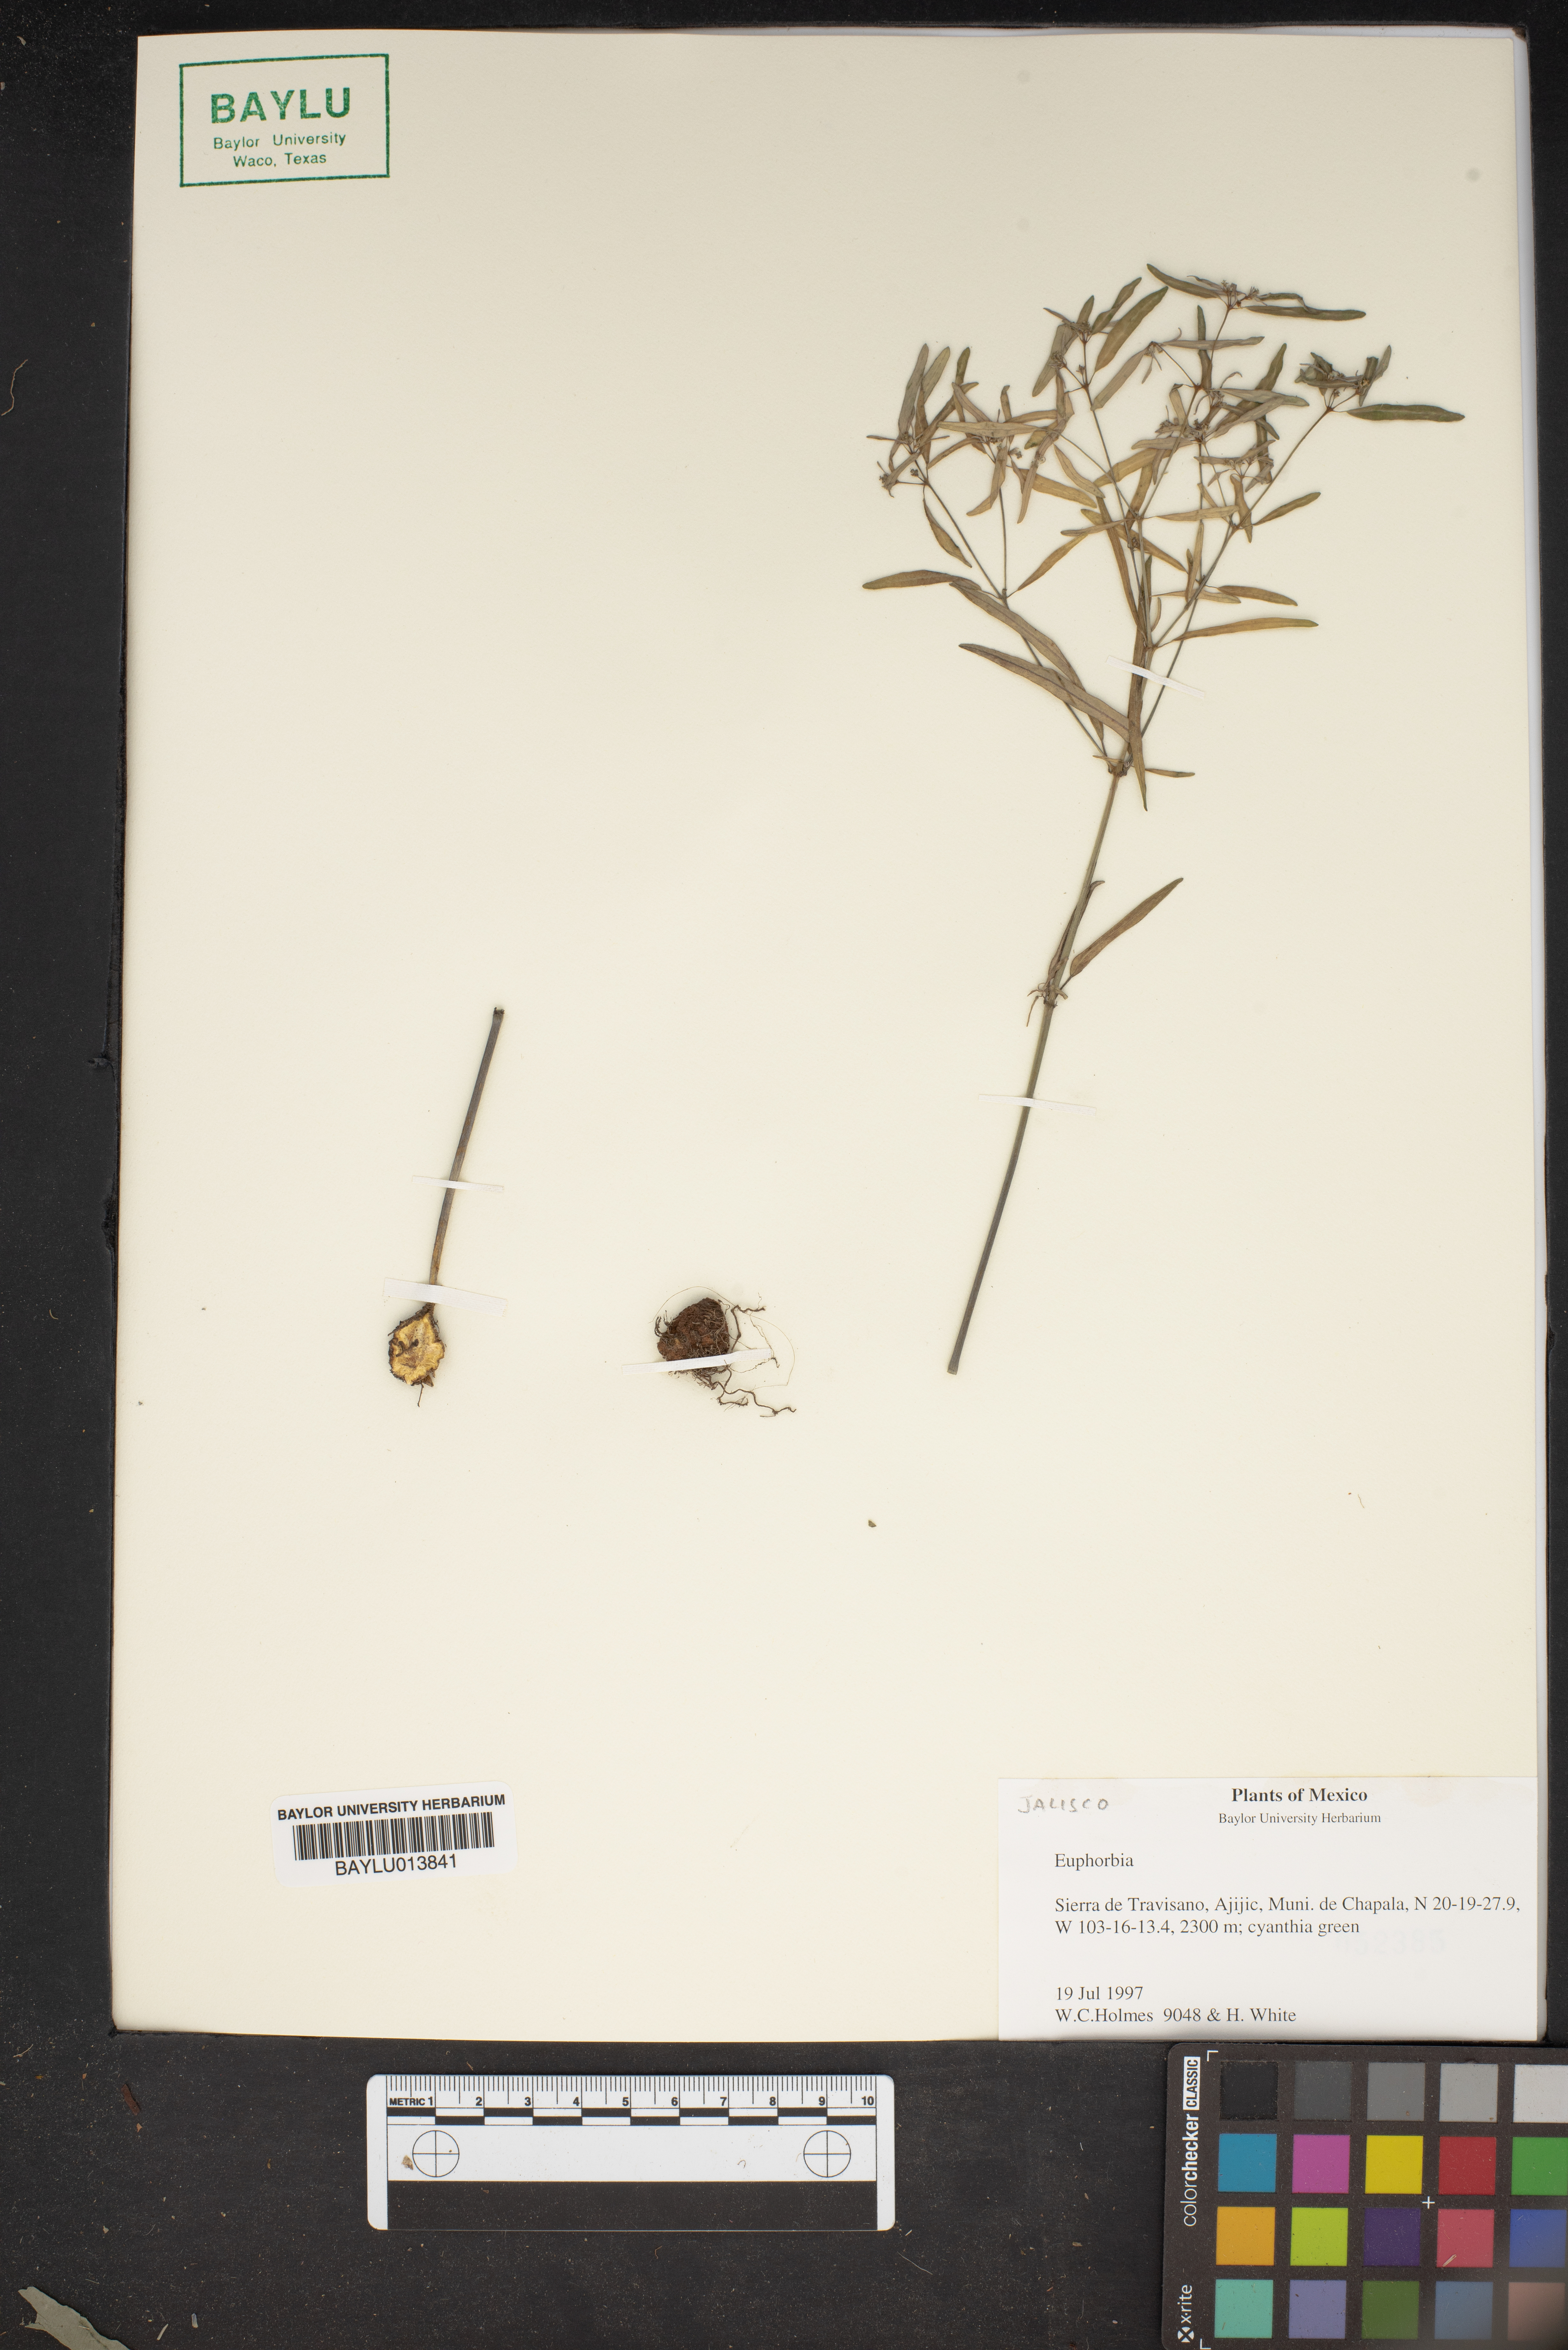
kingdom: Plantae
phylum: Tracheophyta
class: Magnoliopsida
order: Malpighiales
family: Euphorbiaceae
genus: Euphorbia
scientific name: Euphorbia
